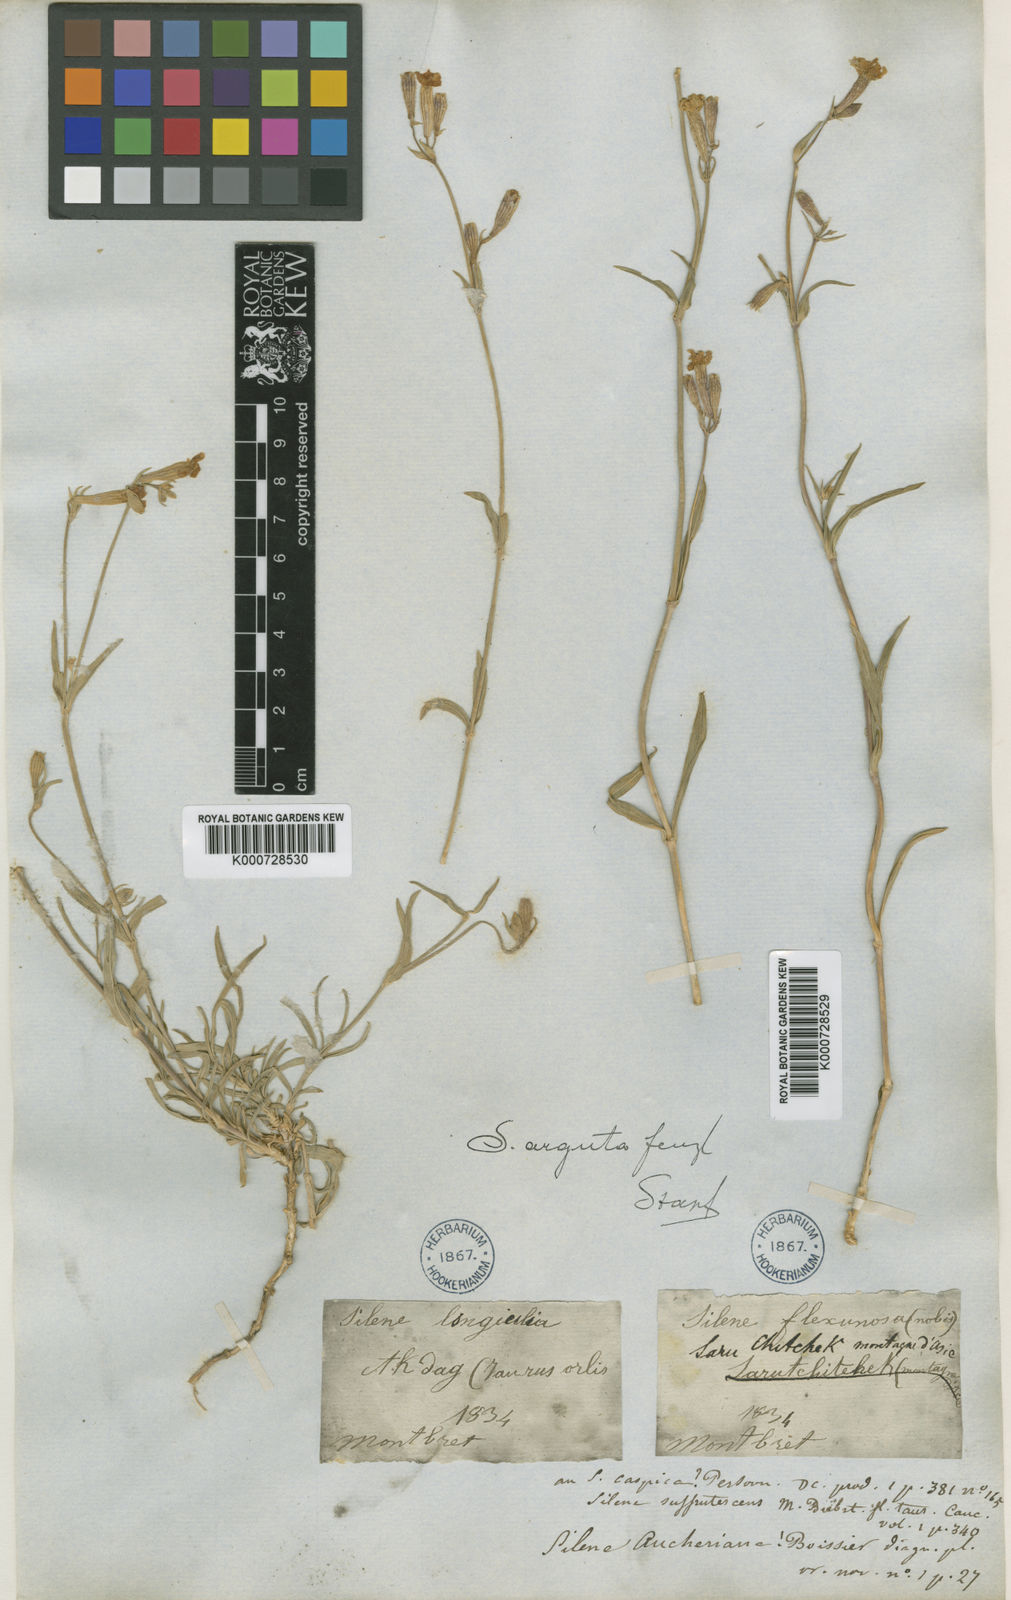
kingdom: Plantae
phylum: Tracheophyta
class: Magnoliopsida
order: Caryophyllales
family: Caryophyllaceae
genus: Silene
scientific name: Silene arguta
